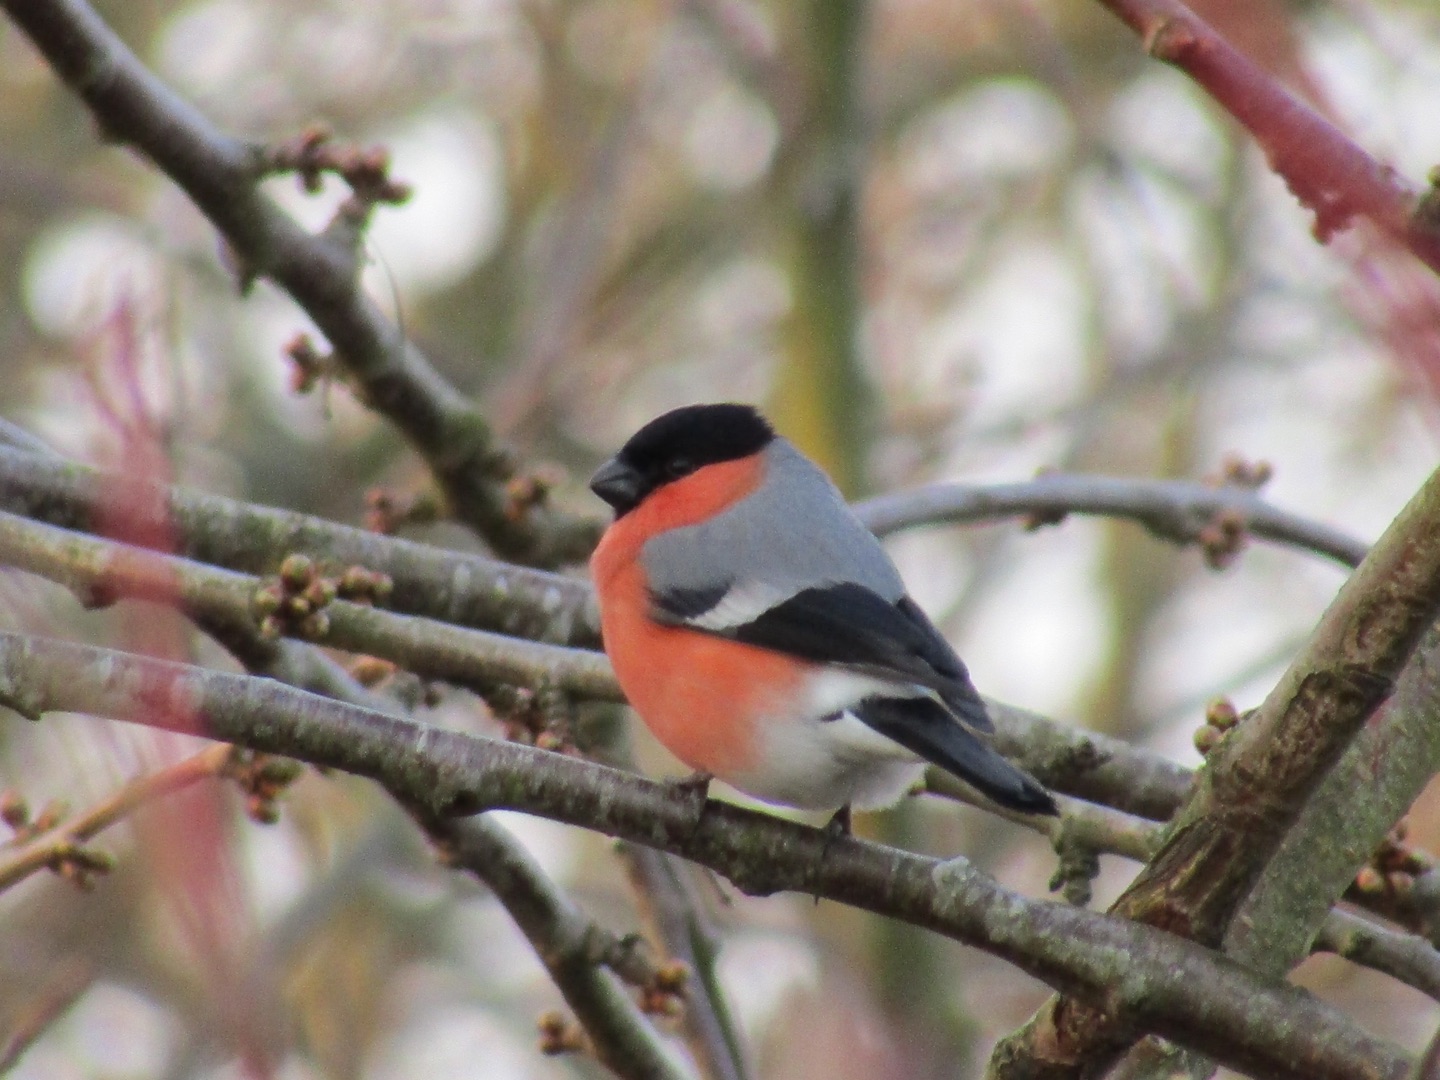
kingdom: Animalia
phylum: Chordata
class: Aves
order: Passeriformes
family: Fringillidae
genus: Pyrrhula
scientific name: Pyrrhula pyrrhula
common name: Dompap
